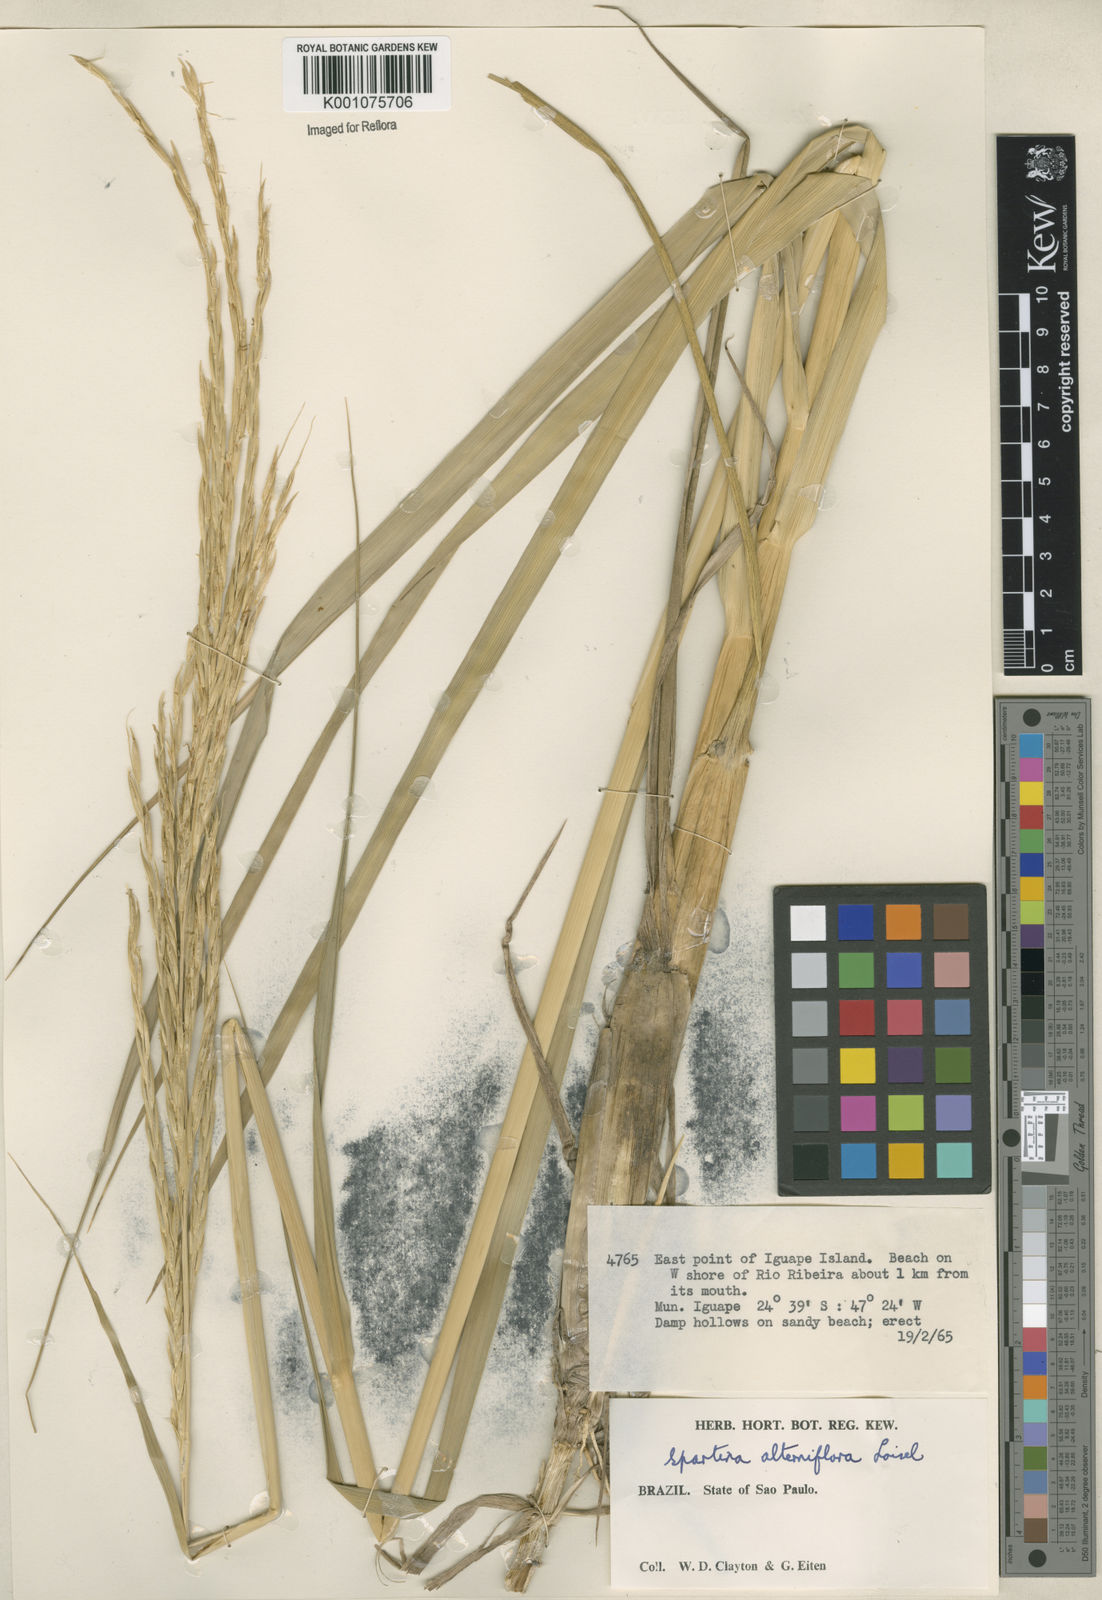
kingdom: Animalia
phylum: Mollusca
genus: Spartina
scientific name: Spartina
